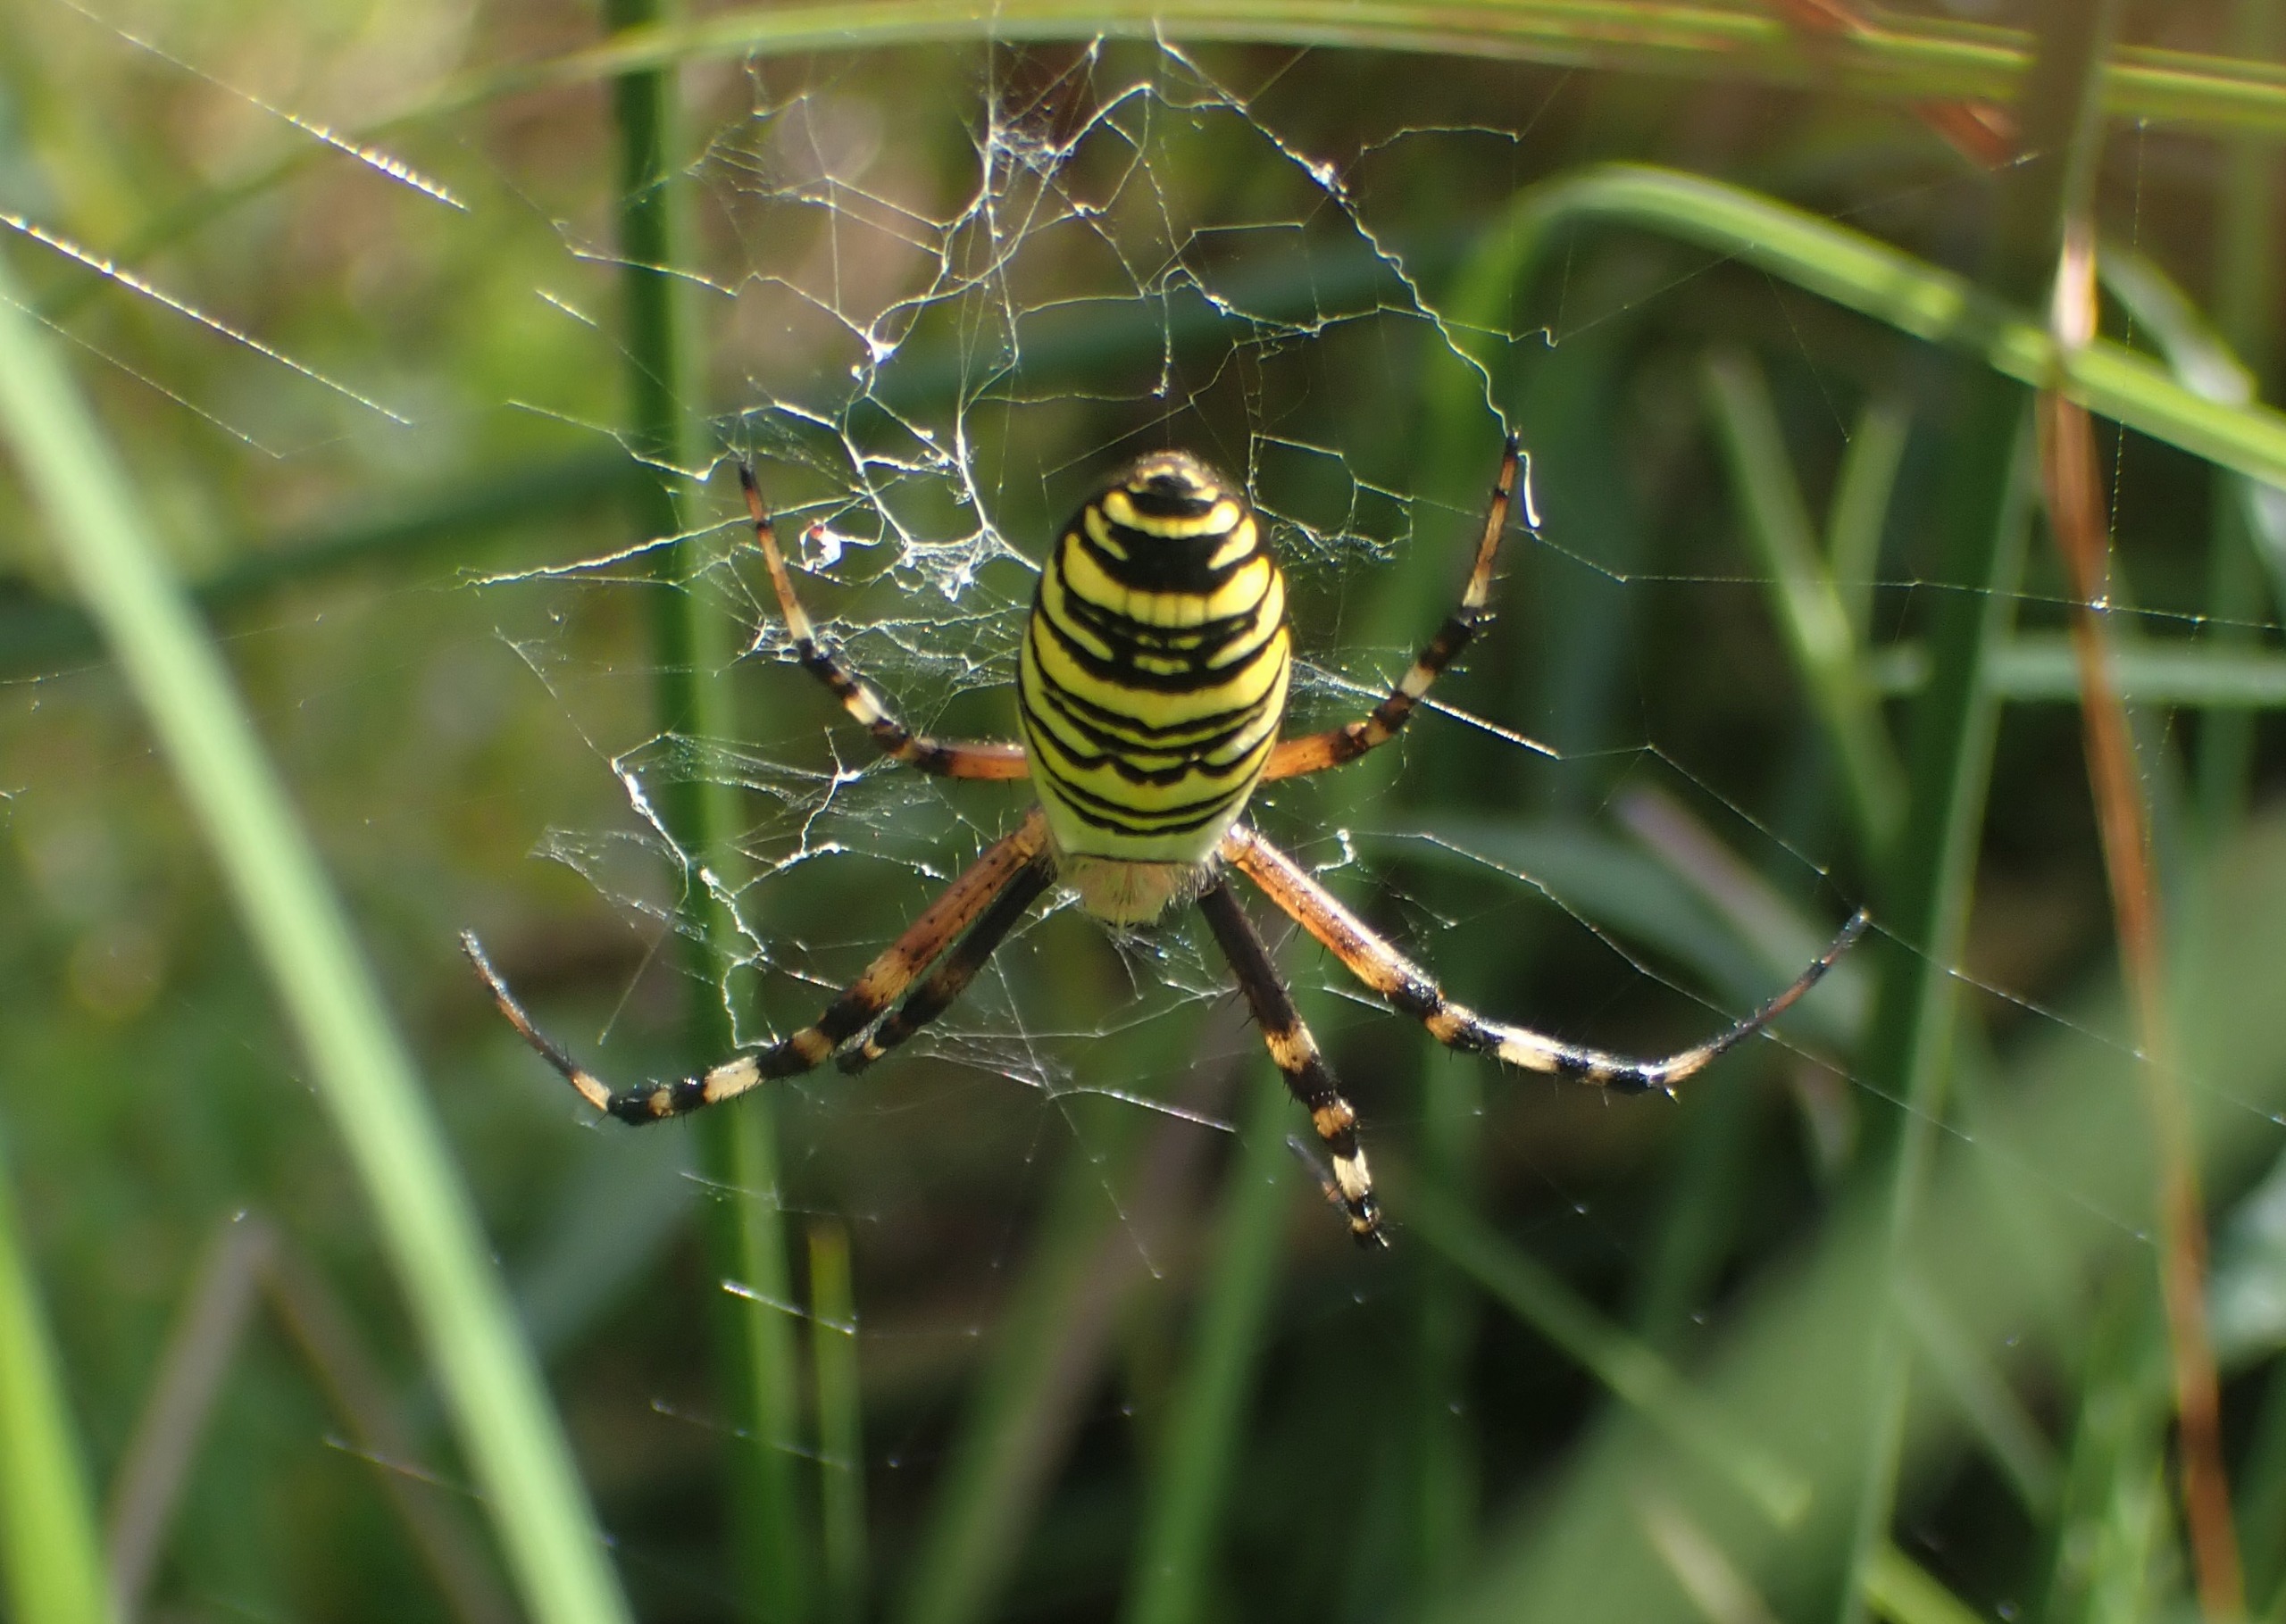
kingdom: Animalia
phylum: Arthropoda
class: Arachnida
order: Araneae
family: Araneidae
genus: Argiope
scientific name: Argiope bruennichi
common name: Hvepseedderkop
